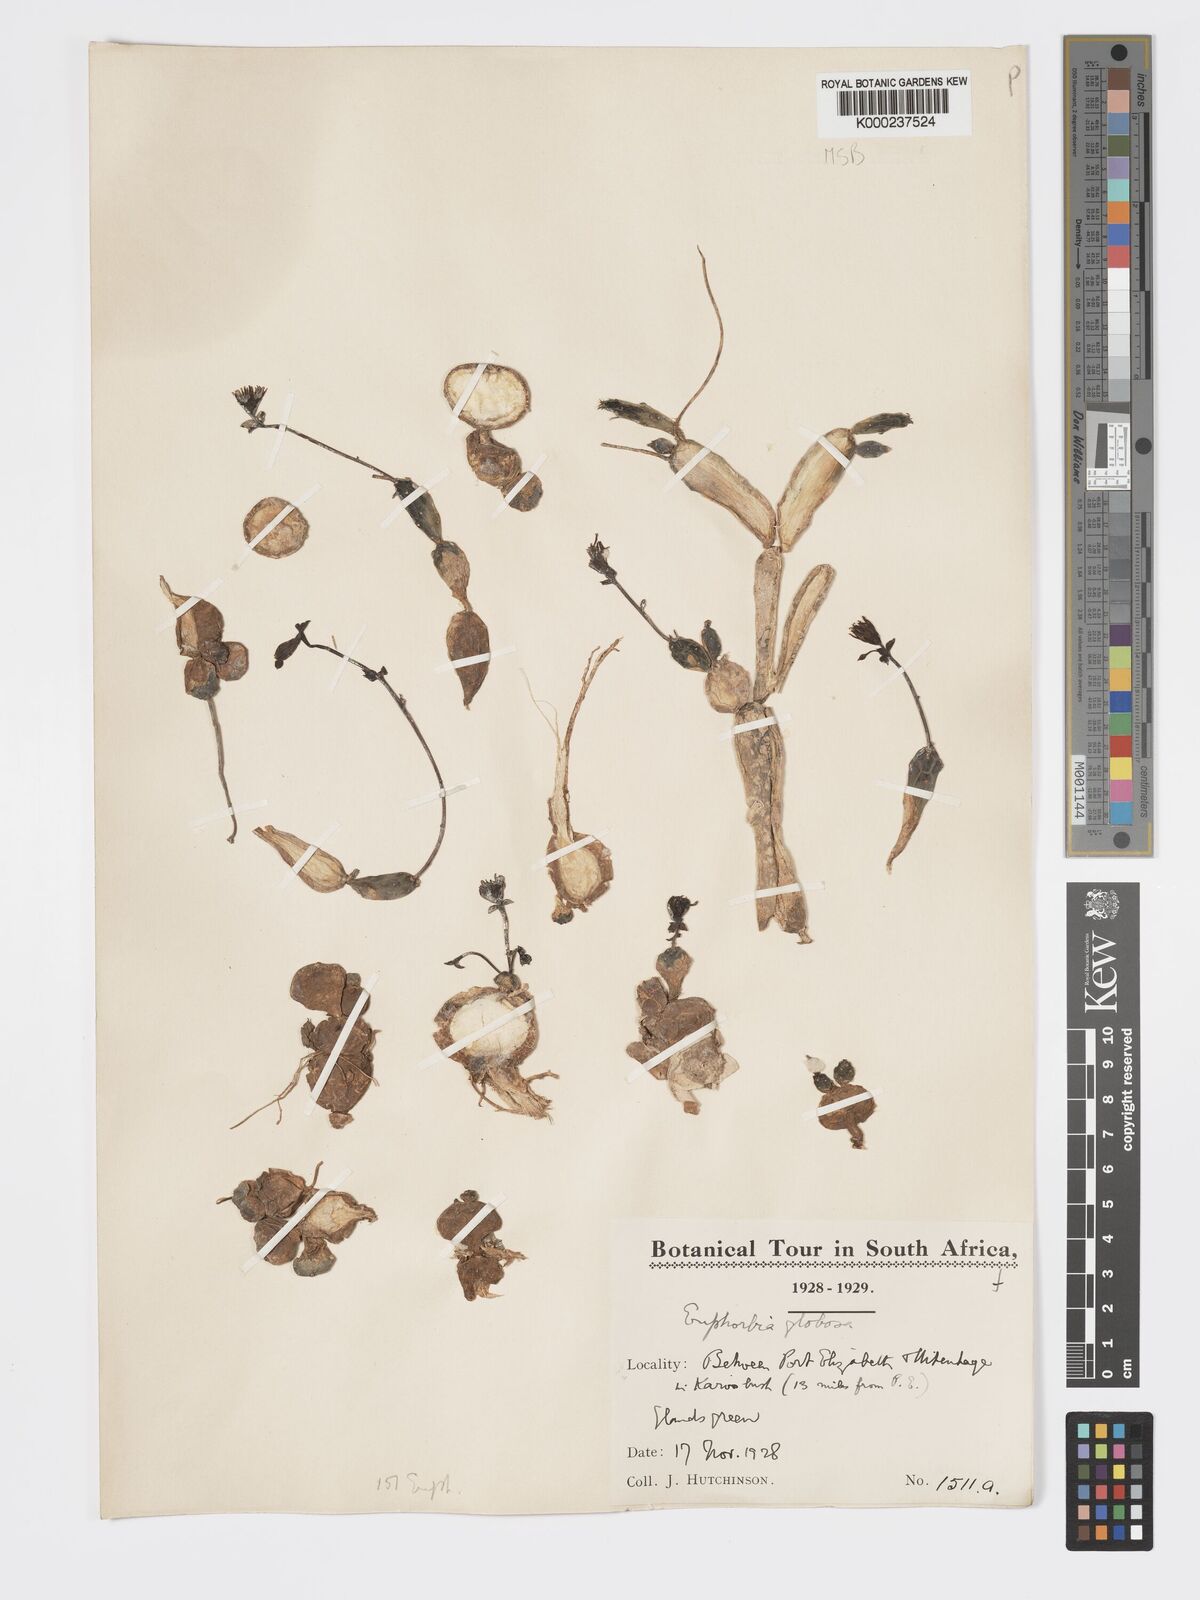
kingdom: Plantae
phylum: Tracheophyta
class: Magnoliopsida
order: Malpighiales
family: Euphorbiaceae
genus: Euphorbia
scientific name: Euphorbia globosa
